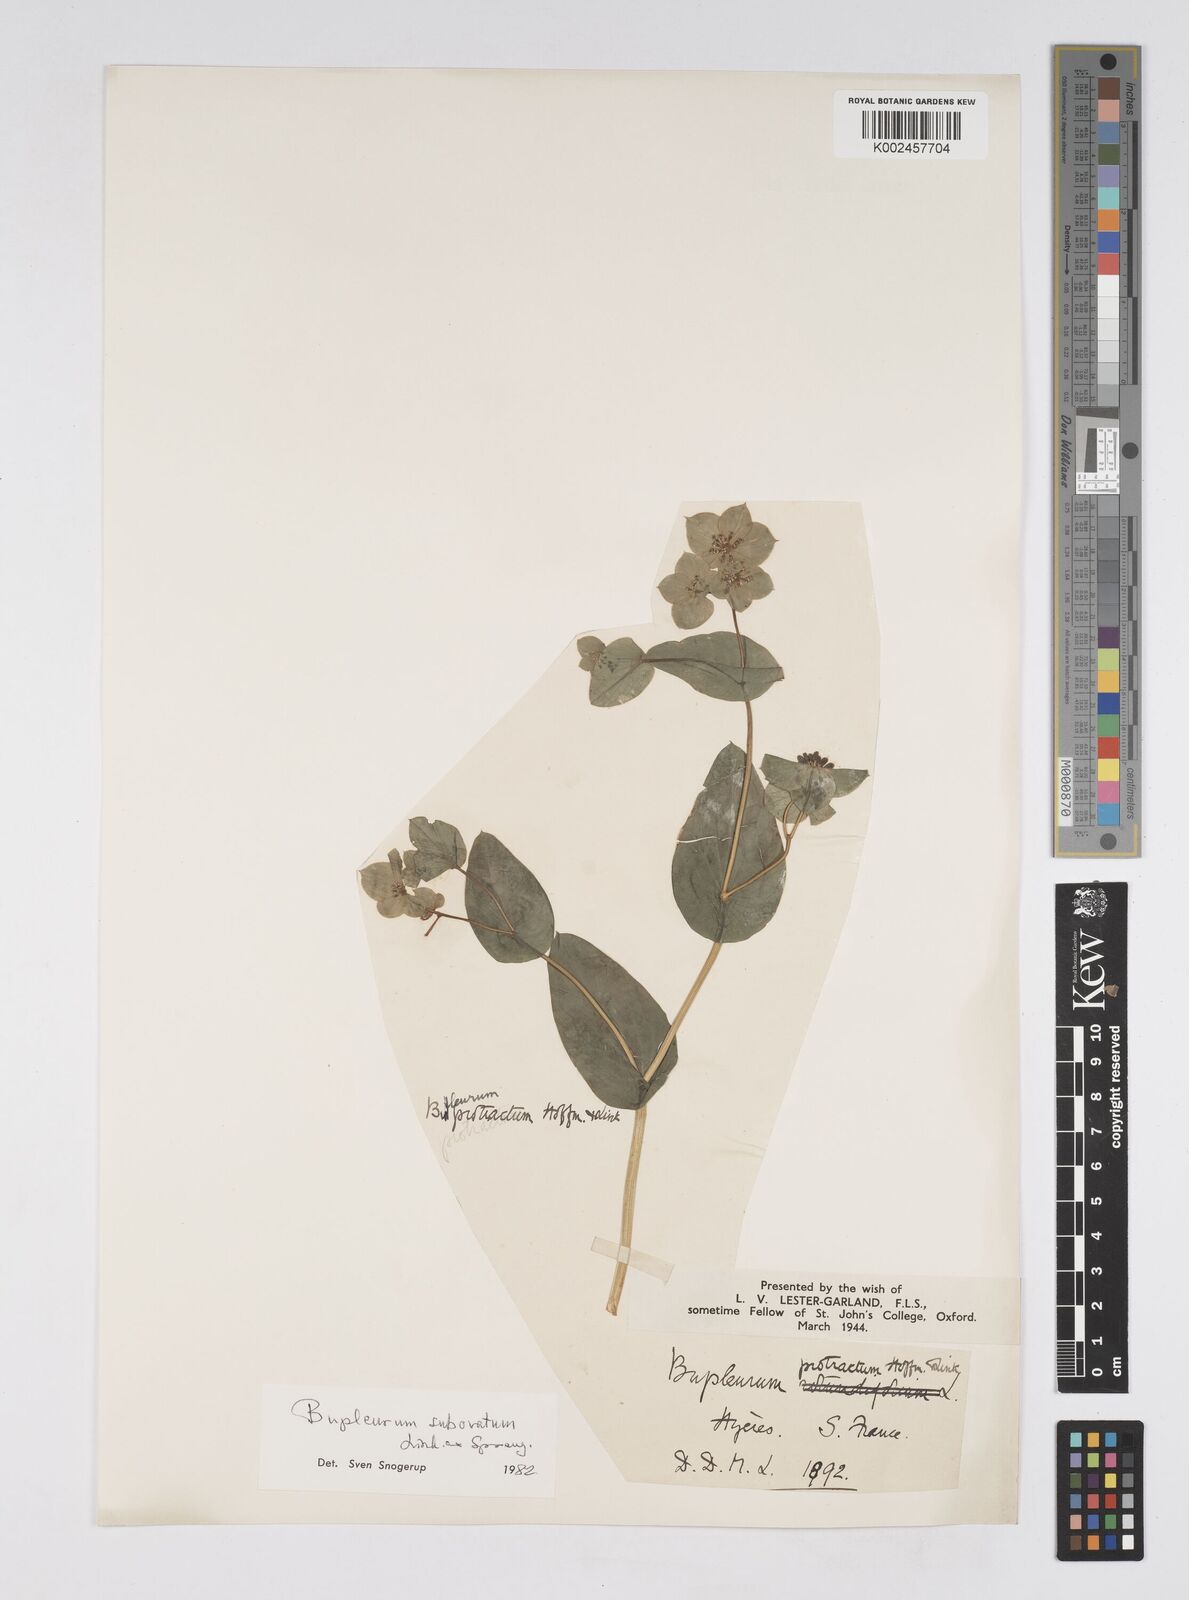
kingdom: Plantae
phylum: Tracheophyta
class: Magnoliopsida
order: Apiales
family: Apiaceae
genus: Bupleurum
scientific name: Bupleurum lancifolium
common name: False thorow-wax
